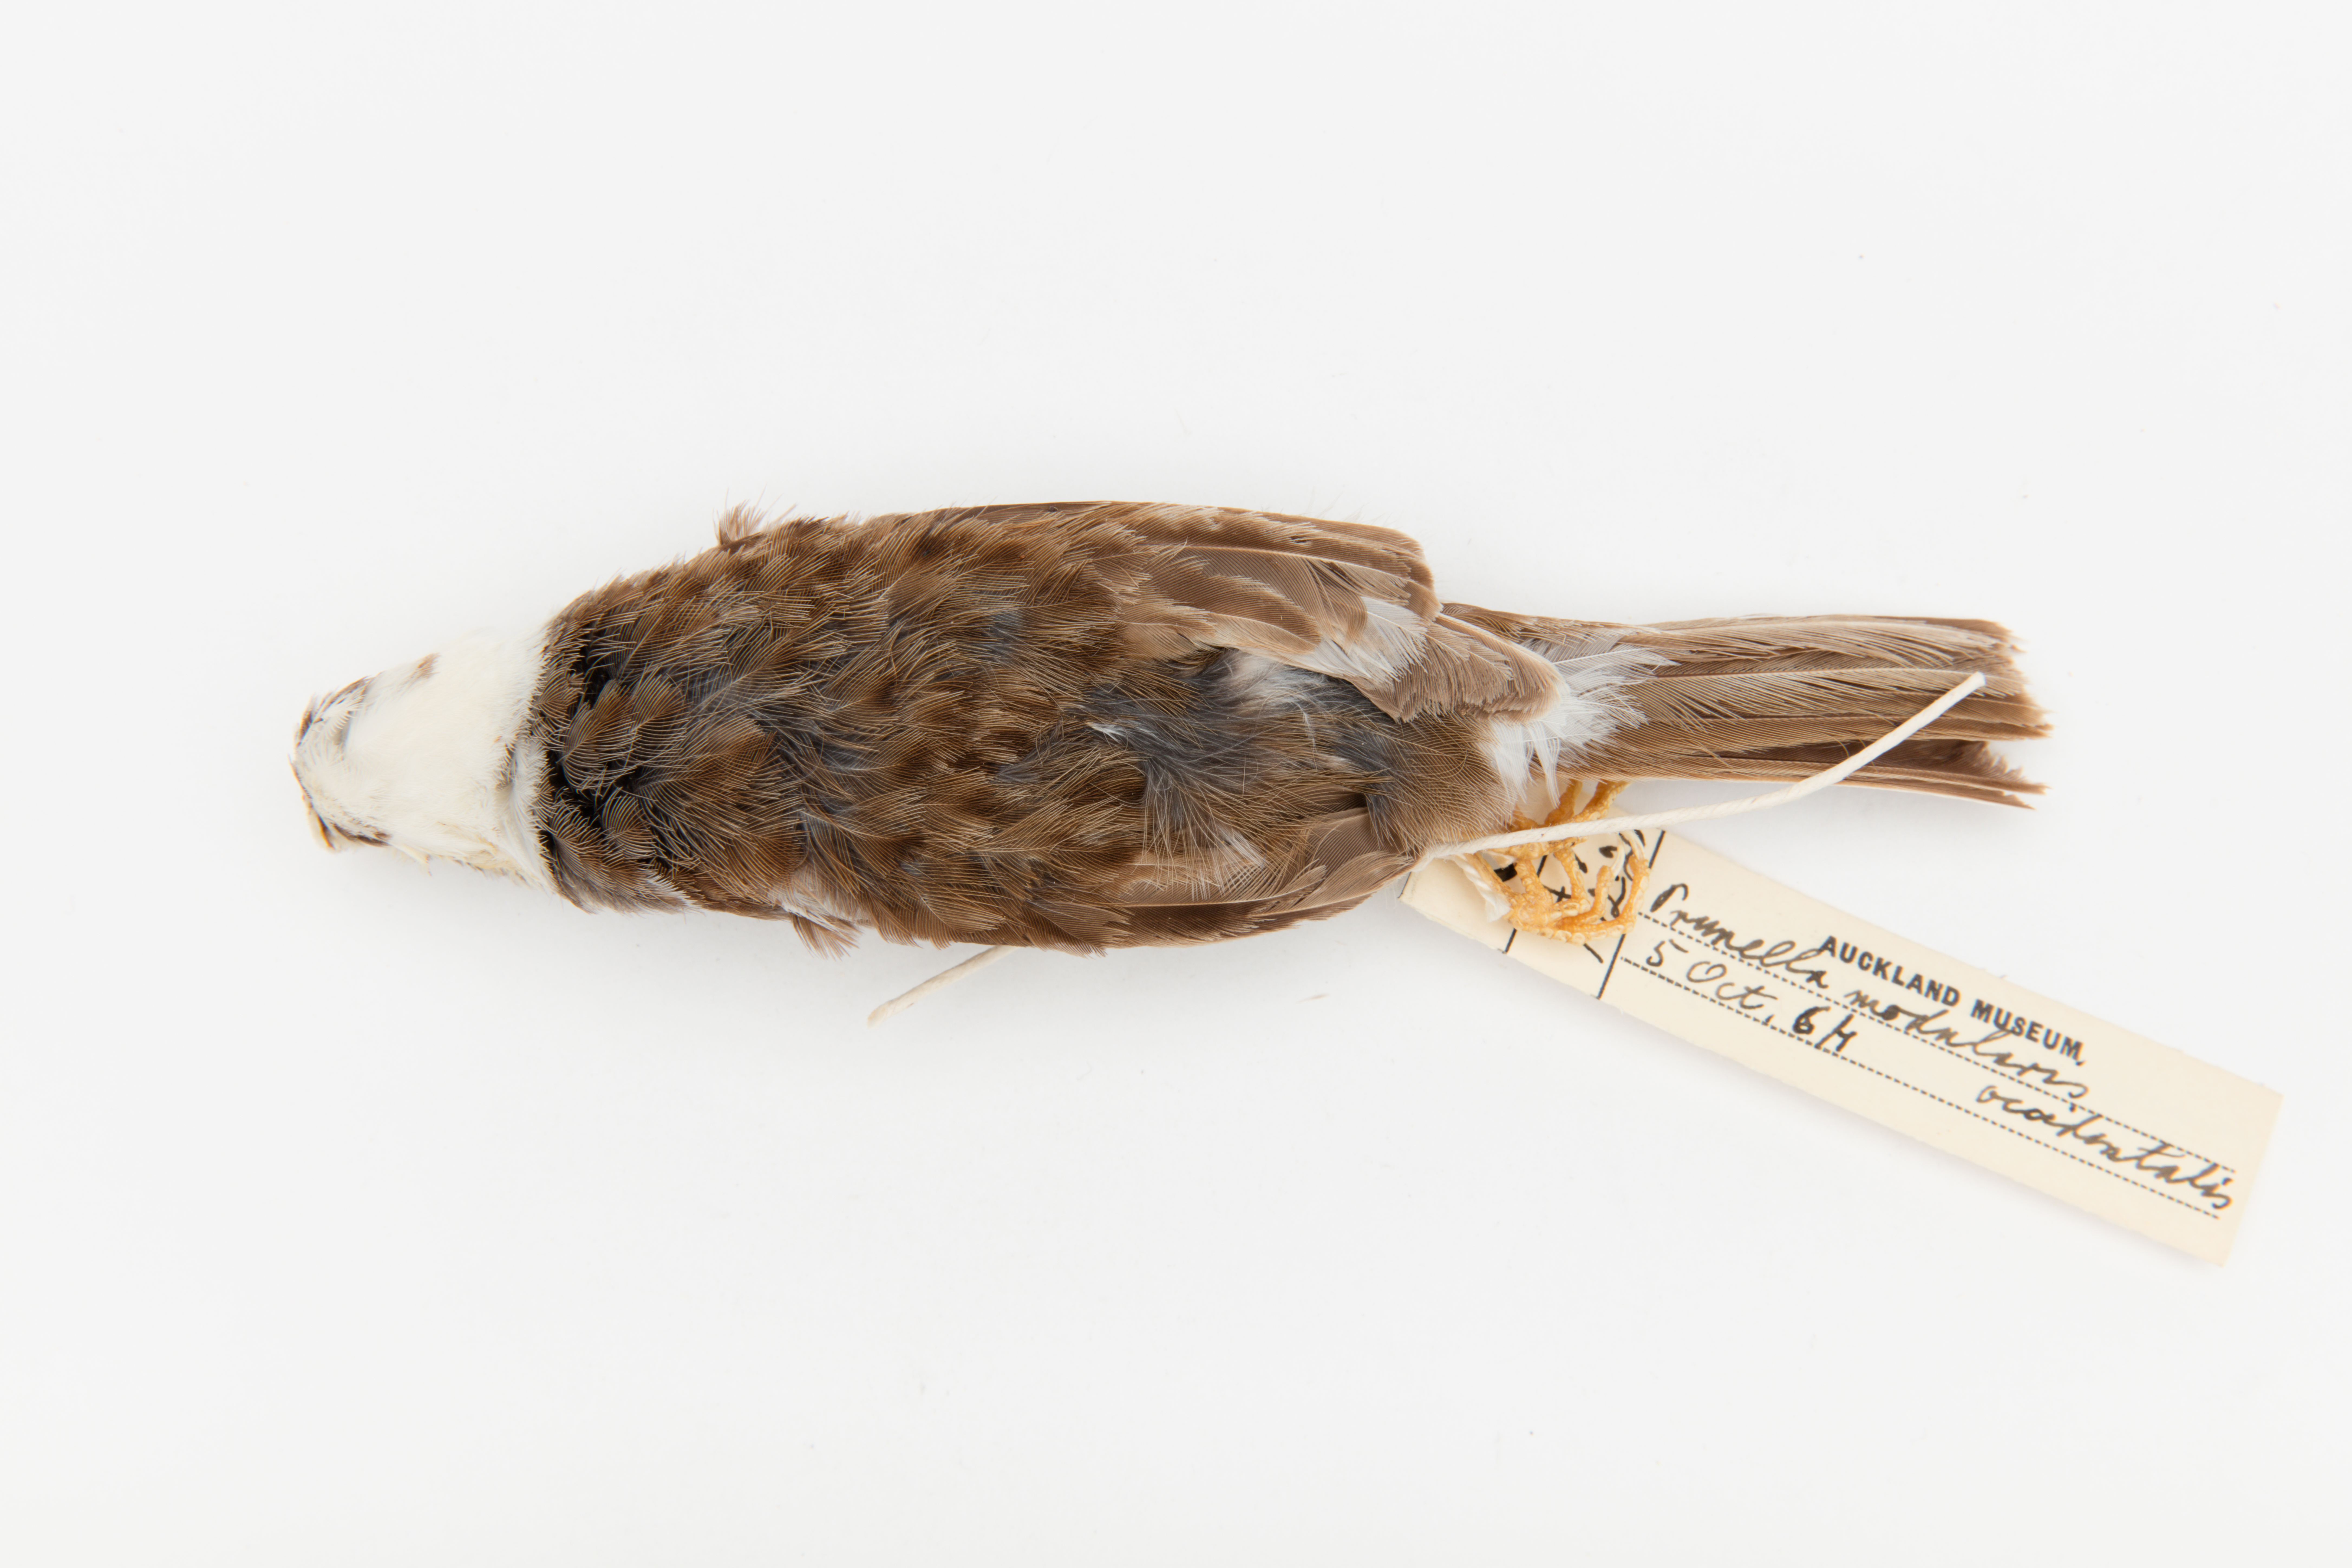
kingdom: Animalia
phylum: Chordata
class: Aves
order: Passeriformes
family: Prunellidae
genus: Prunella
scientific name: Prunella modularis
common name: Dunnock
